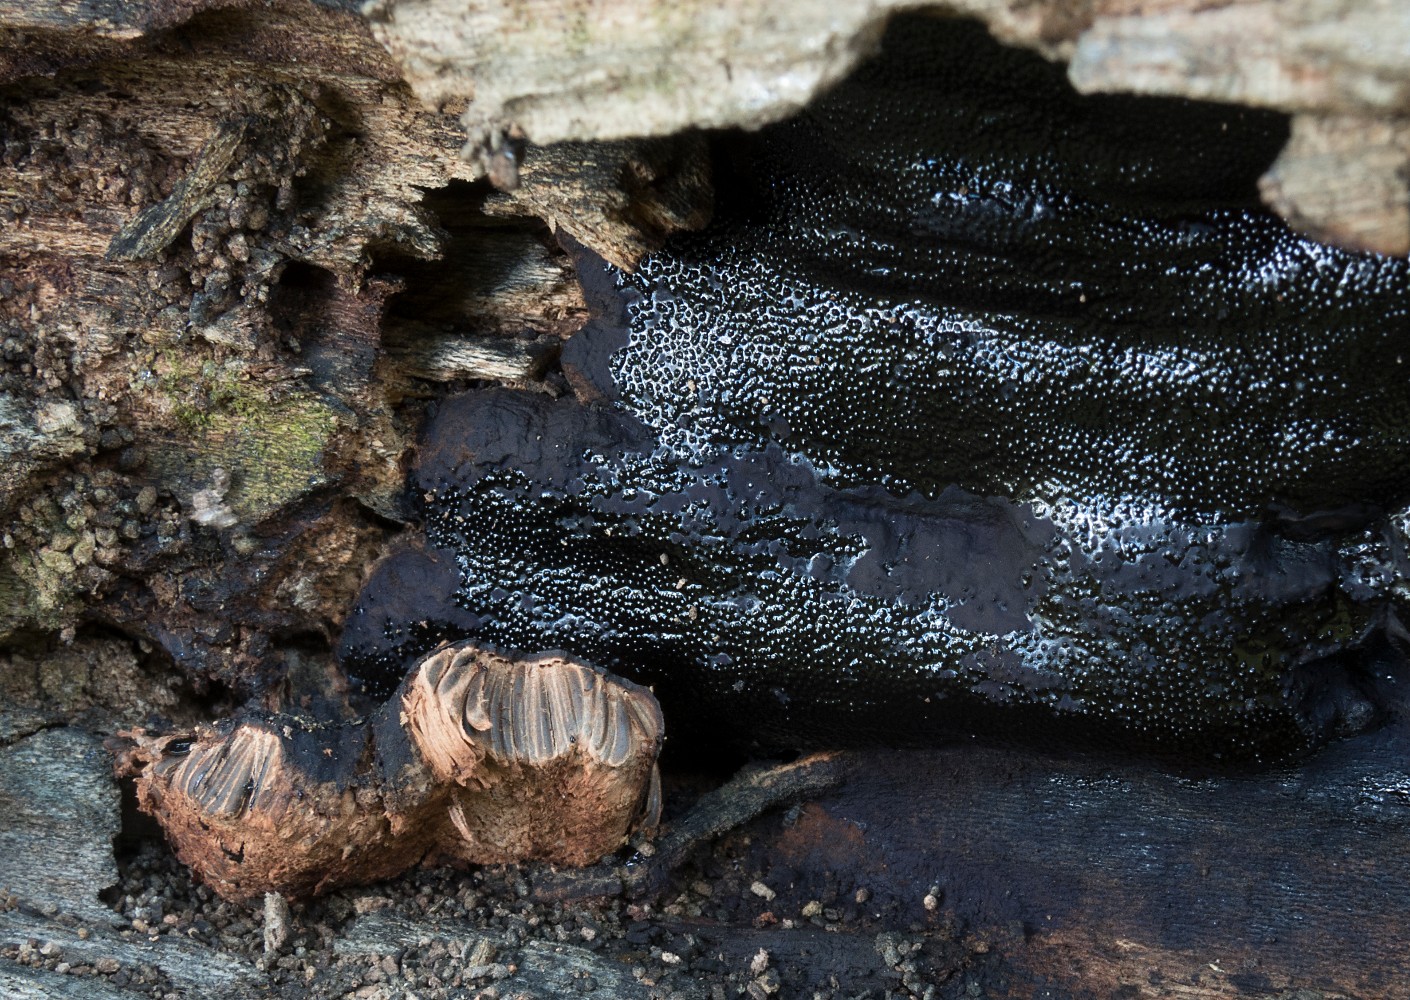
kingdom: Fungi
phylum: Ascomycota
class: Sordariomycetes
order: Boliniales
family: Boliniaceae
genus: Camarops
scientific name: Camarops polysperma
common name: elle-kulsnegl
